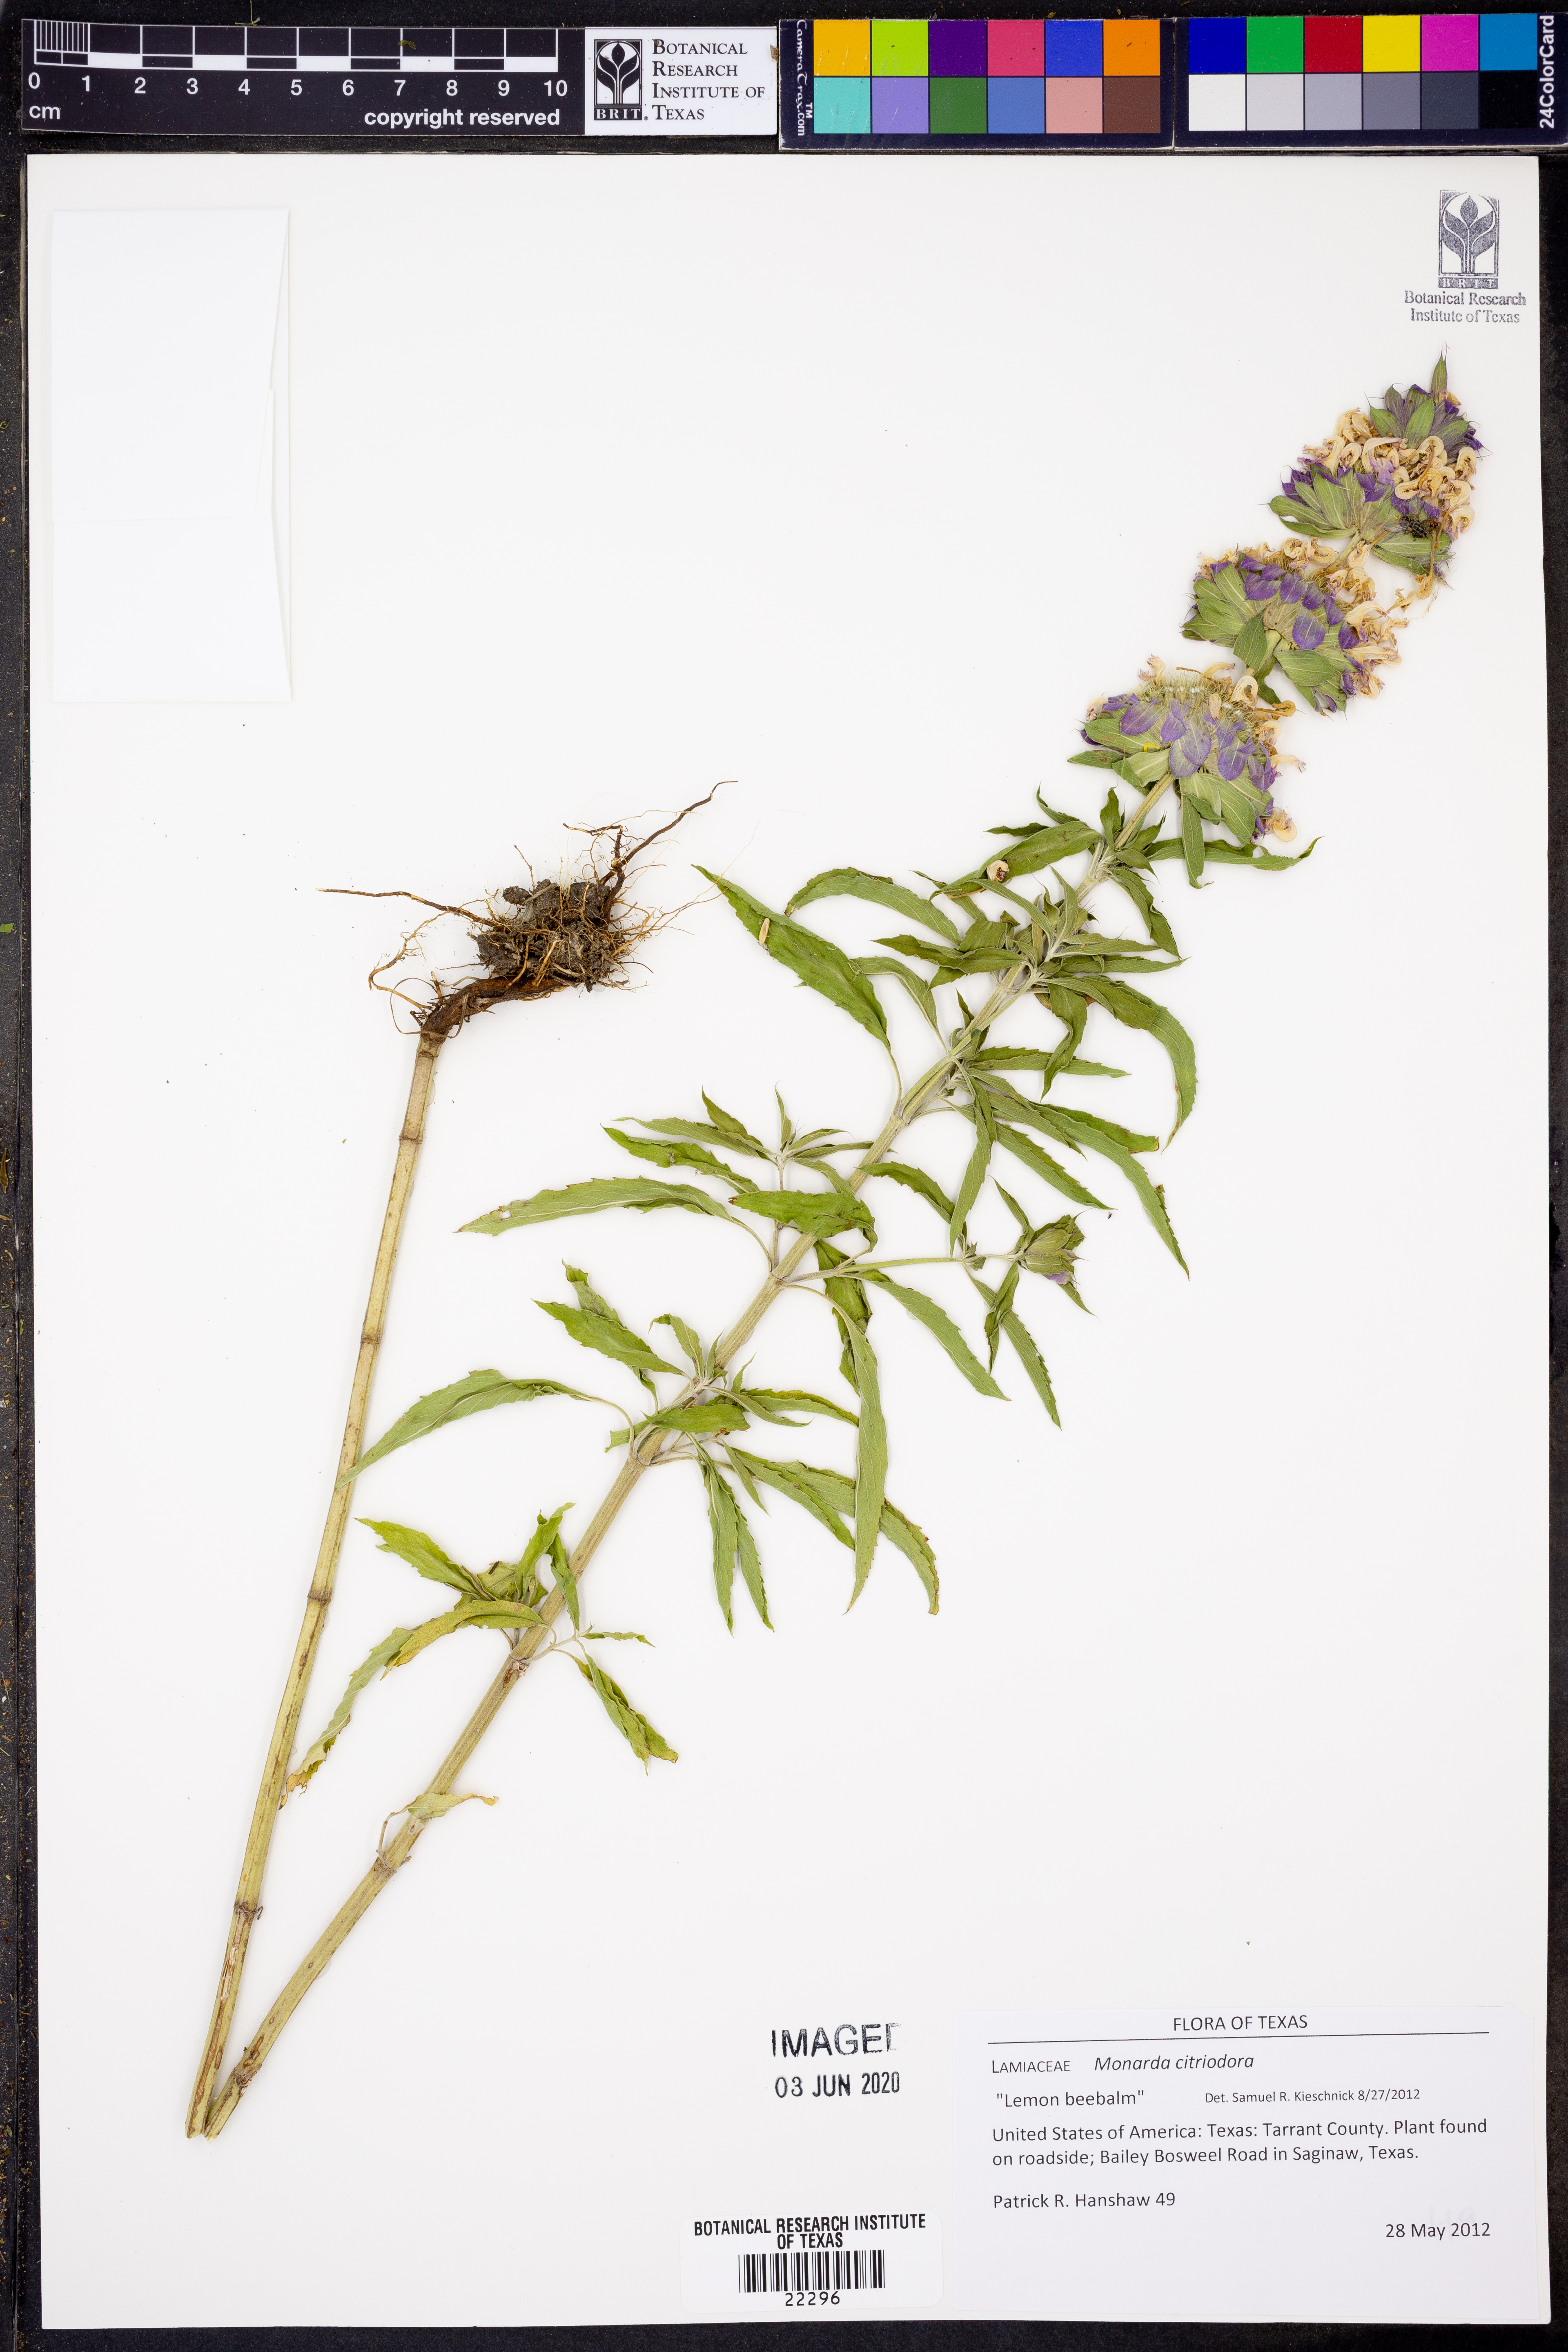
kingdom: Plantae
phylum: Tracheophyta
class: Magnoliopsida
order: Lamiales
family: Lamiaceae
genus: Monarda
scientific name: Monarda citriodora
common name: Lemon beebalm
